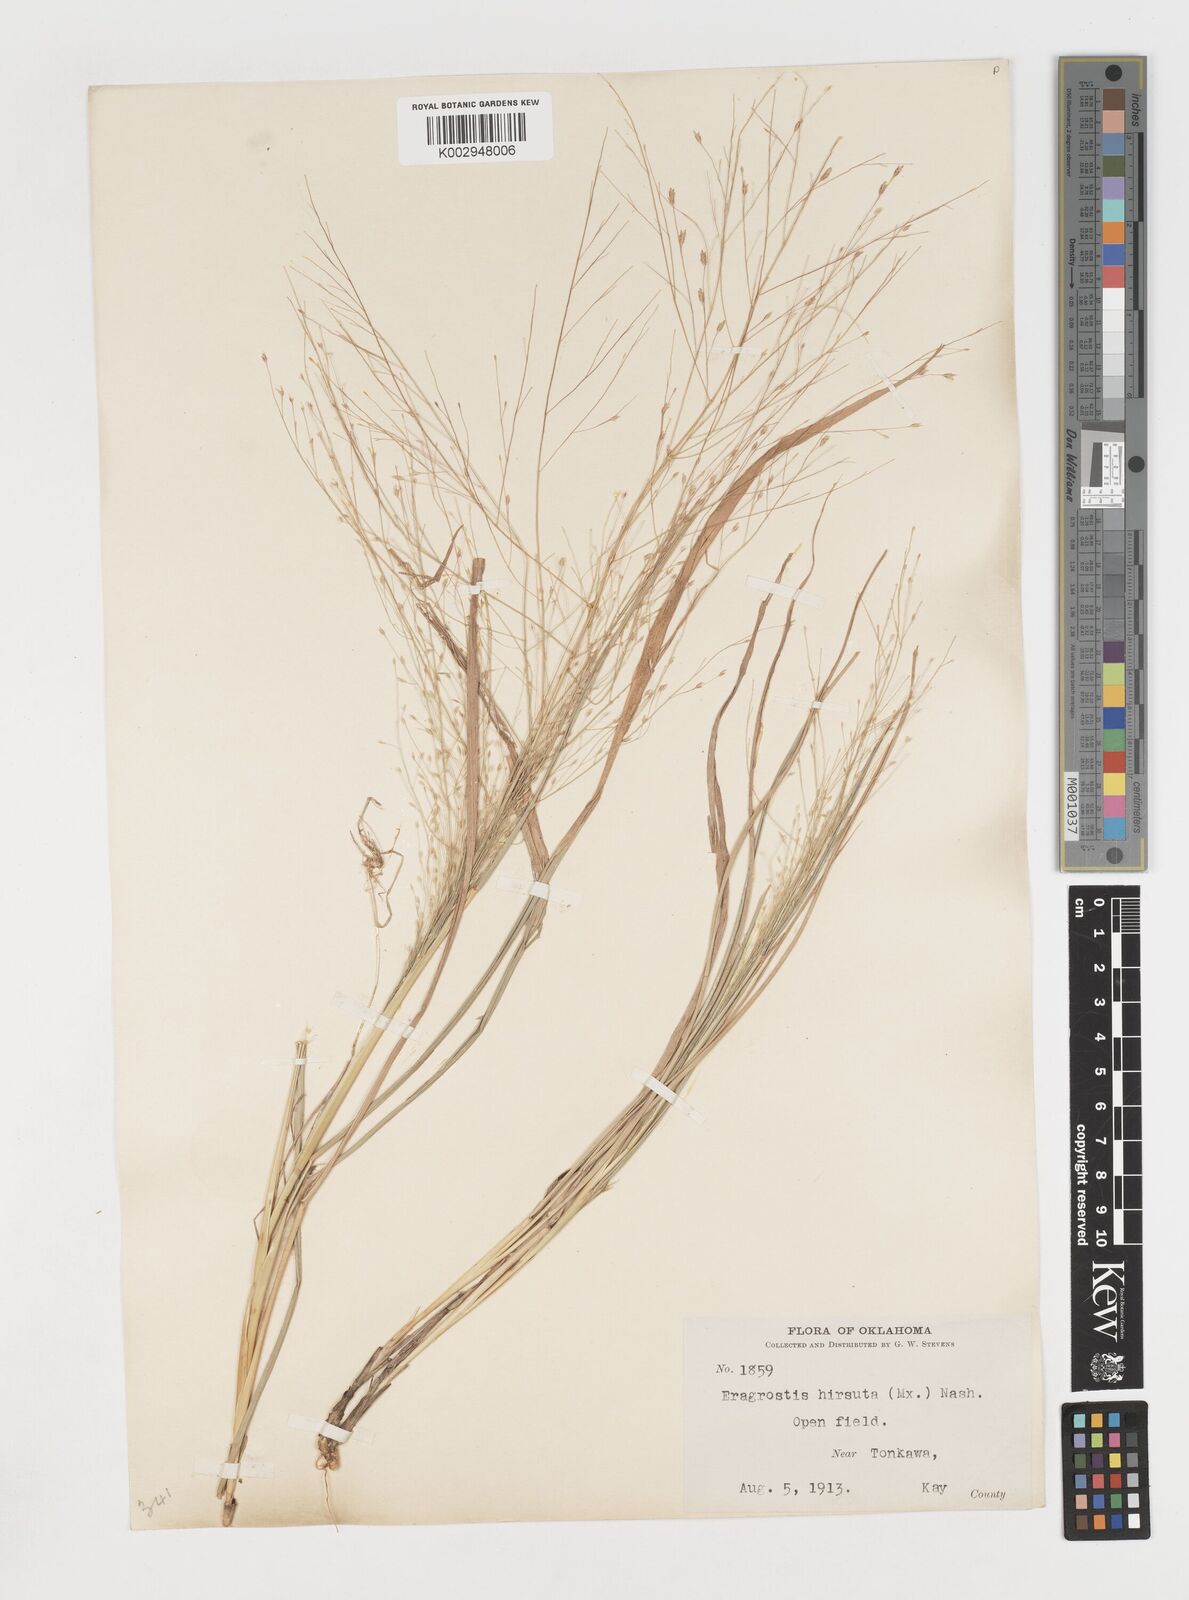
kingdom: Plantae
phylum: Tracheophyta
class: Liliopsida
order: Poales
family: Poaceae
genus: Eragrostis
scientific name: Eragrostis spectabilis
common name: Petticoat-climber
